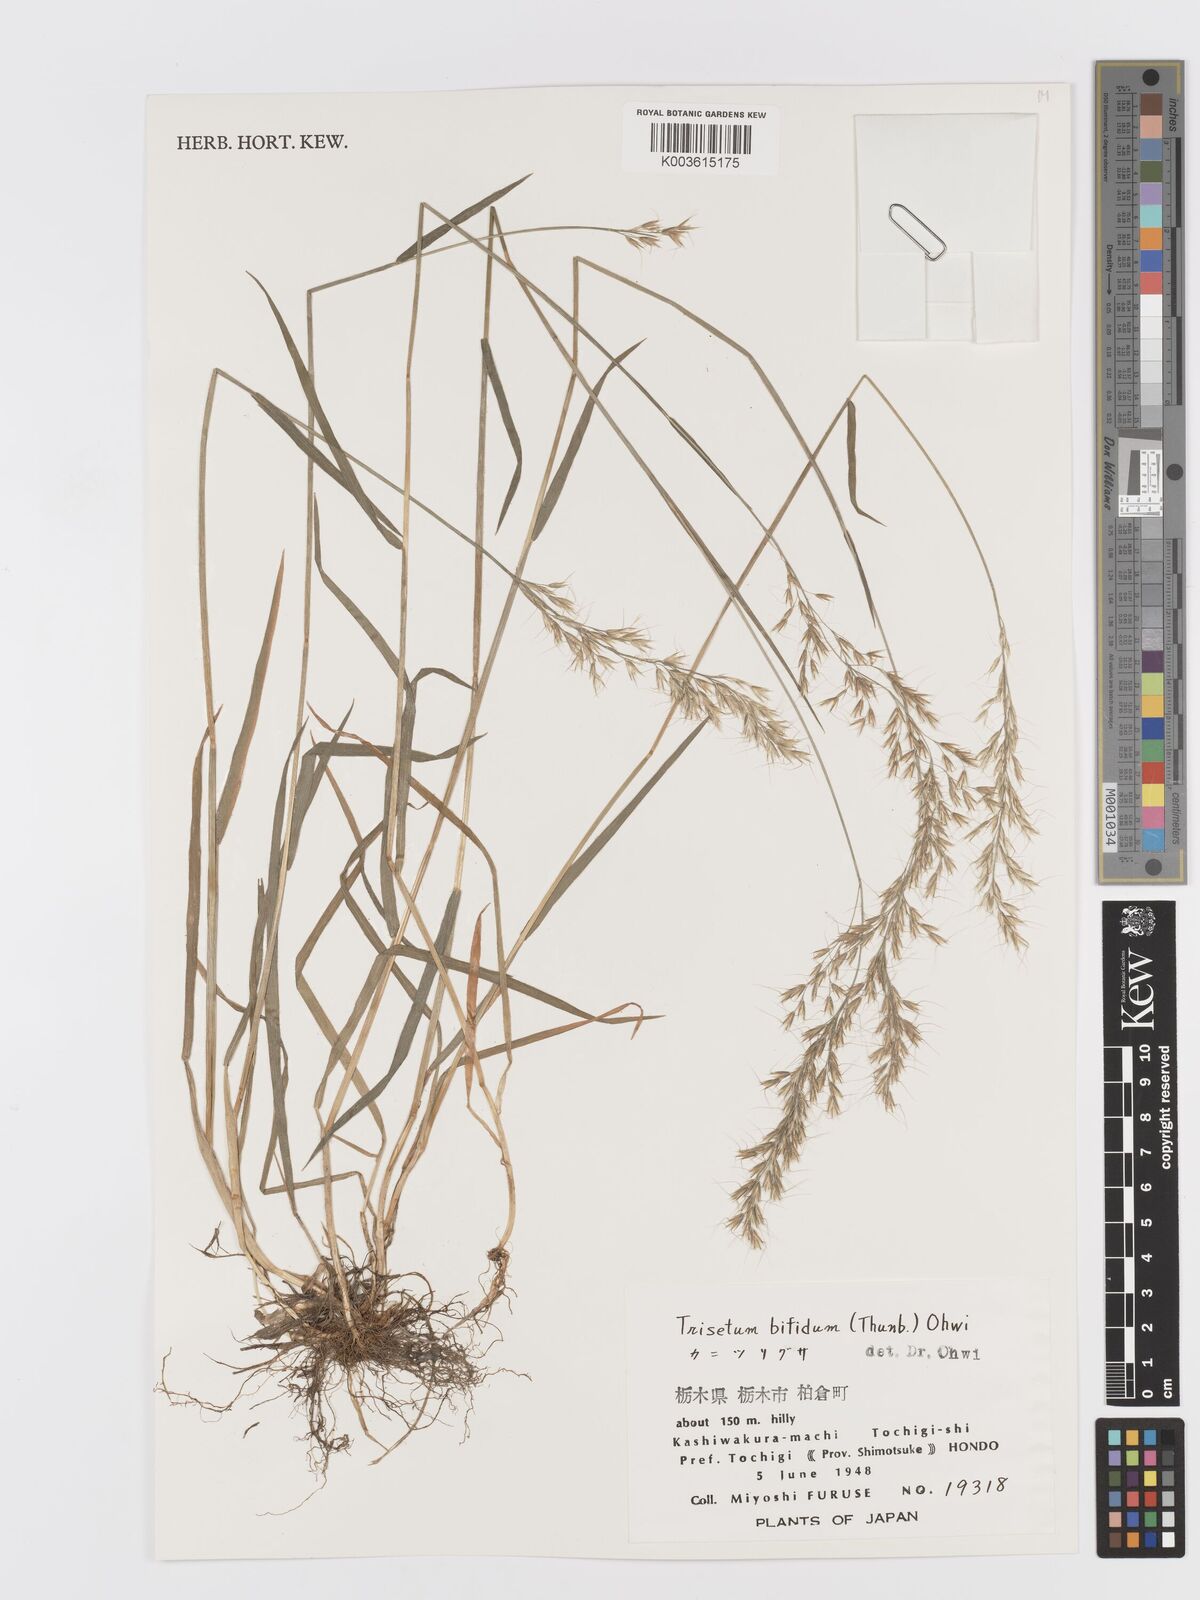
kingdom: Plantae
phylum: Tracheophyta
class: Liliopsida
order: Poales
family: Poaceae
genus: Sibirotrisetum
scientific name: Sibirotrisetum bifidum
